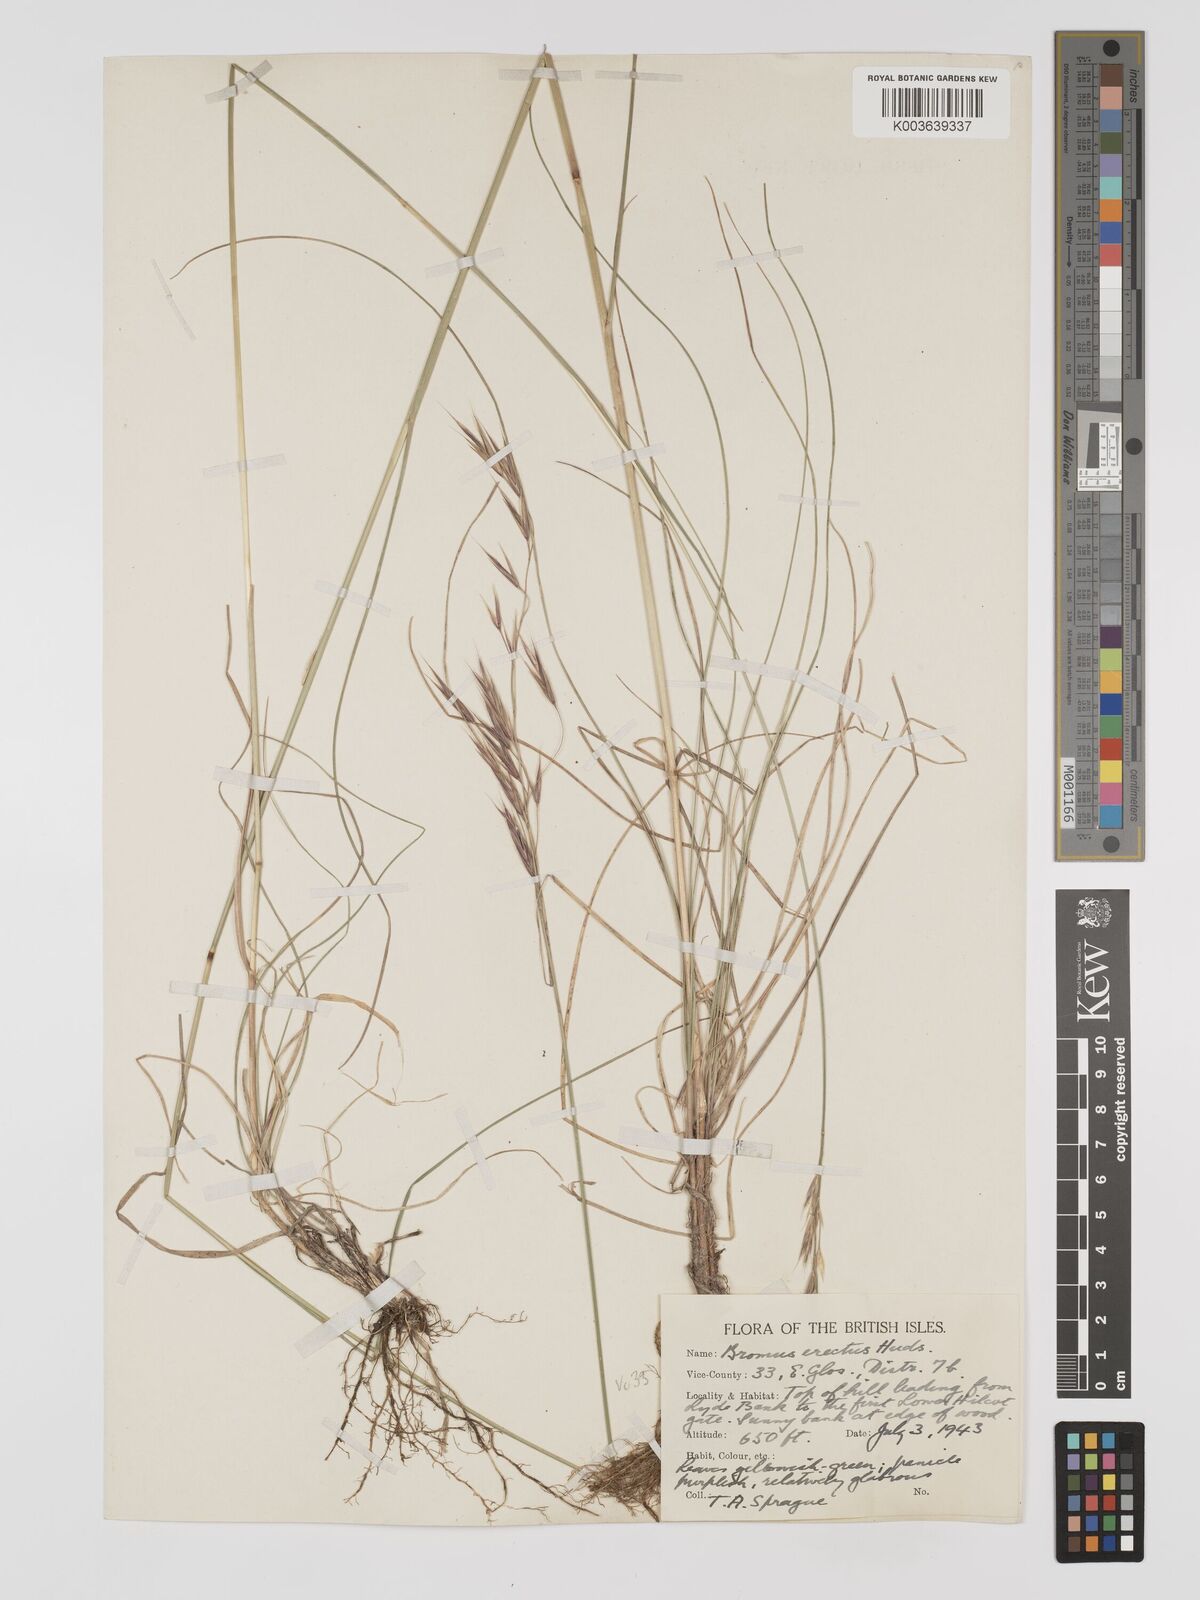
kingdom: Plantae
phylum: Tracheophyta
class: Liliopsida
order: Poales
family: Poaceae
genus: Bromus
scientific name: Bromus erectus
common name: Erect brome
